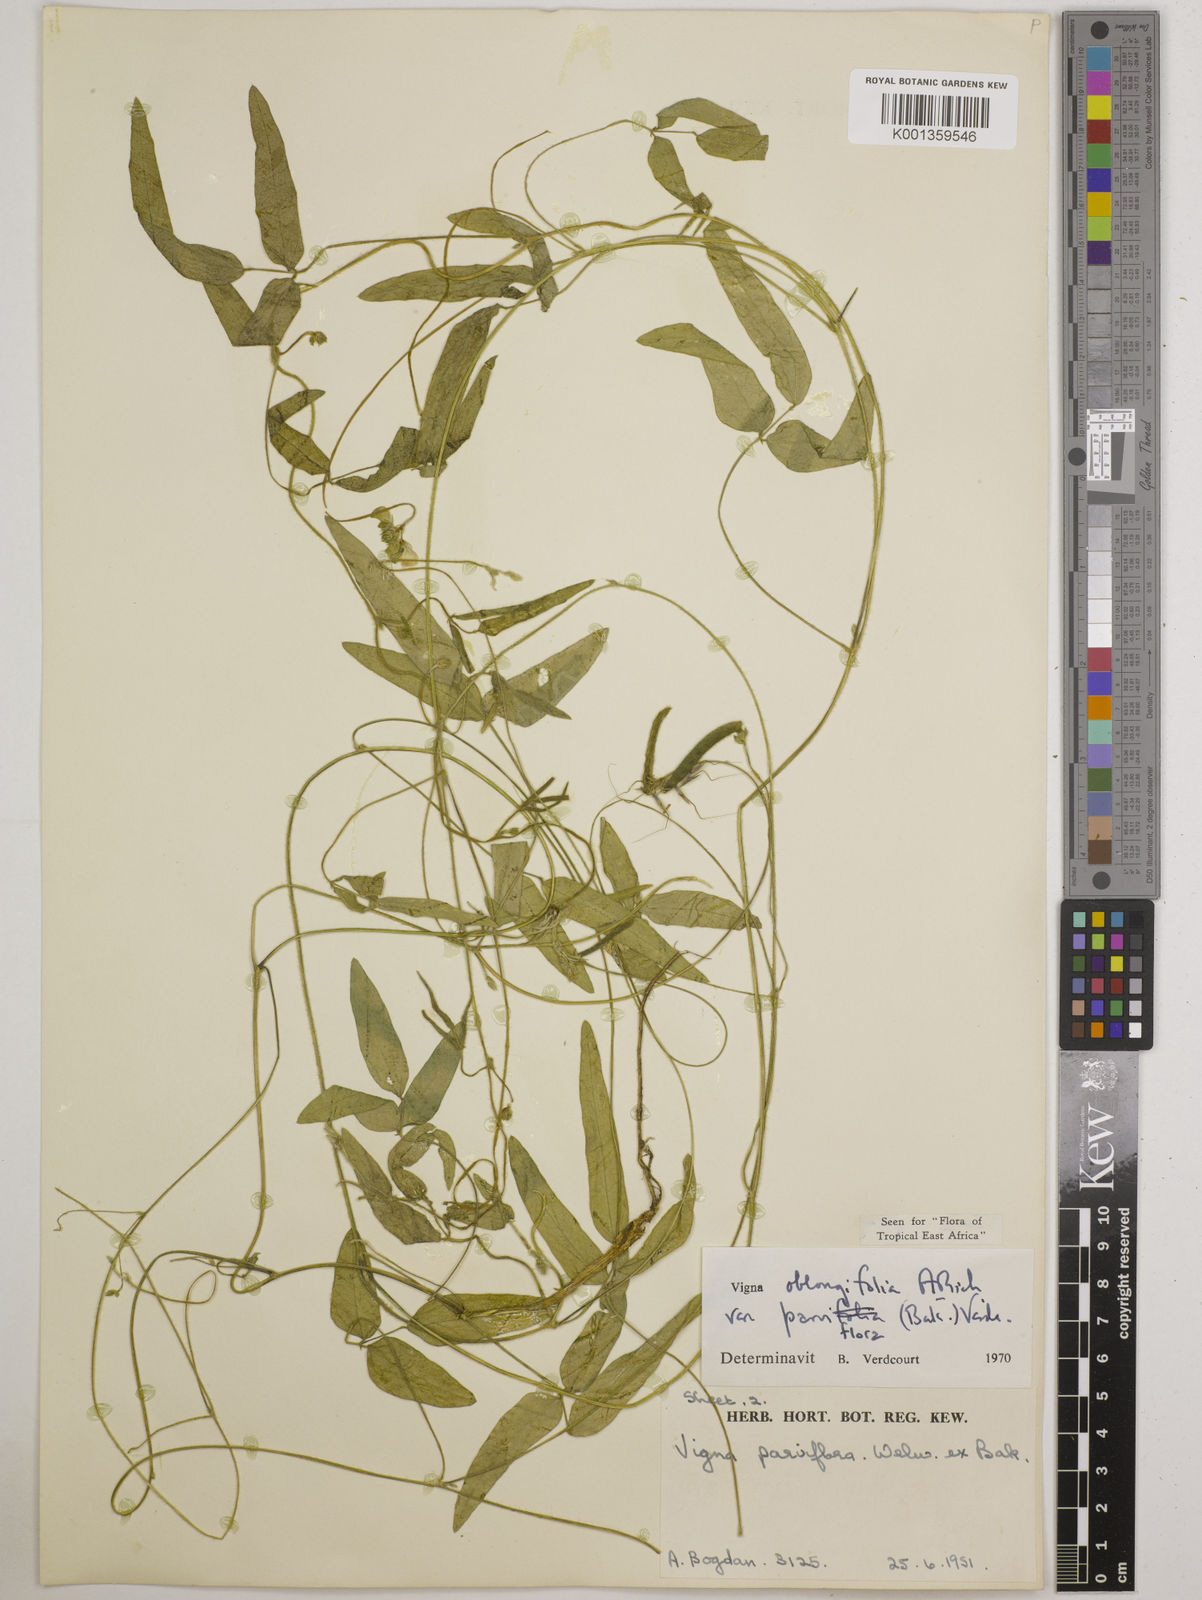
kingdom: Plantae
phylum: Tracheophyta
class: Magnoliopsida
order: Fabales
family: Fabaceae
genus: Vigna
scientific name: Vigna
